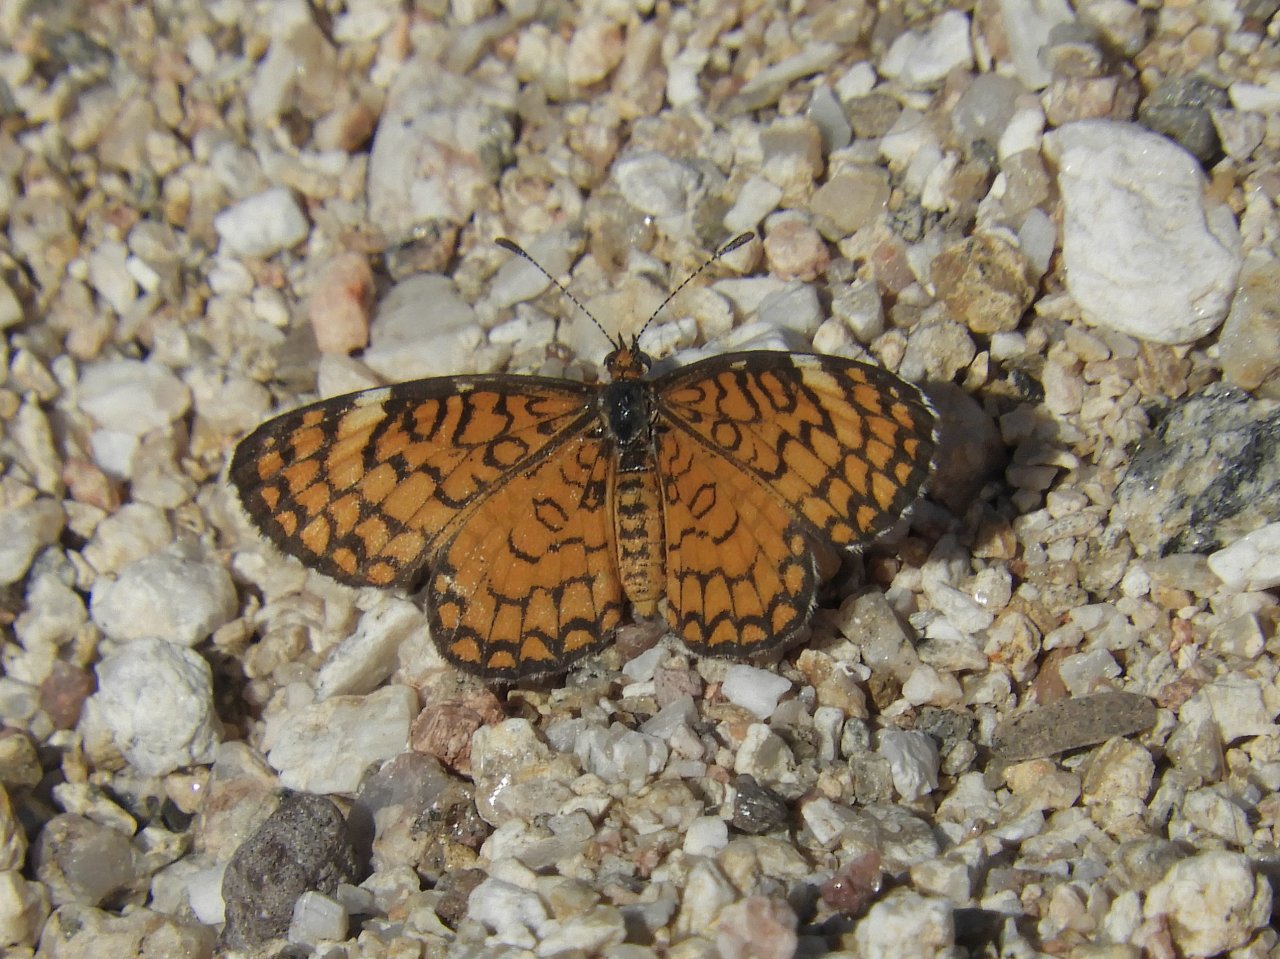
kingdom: Animalia
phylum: Arthropoda
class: Insecta
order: Lepidoptera
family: Nymphalidae
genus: Dymasia
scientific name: Dymasia dymas
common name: Tiny Checkerspot
